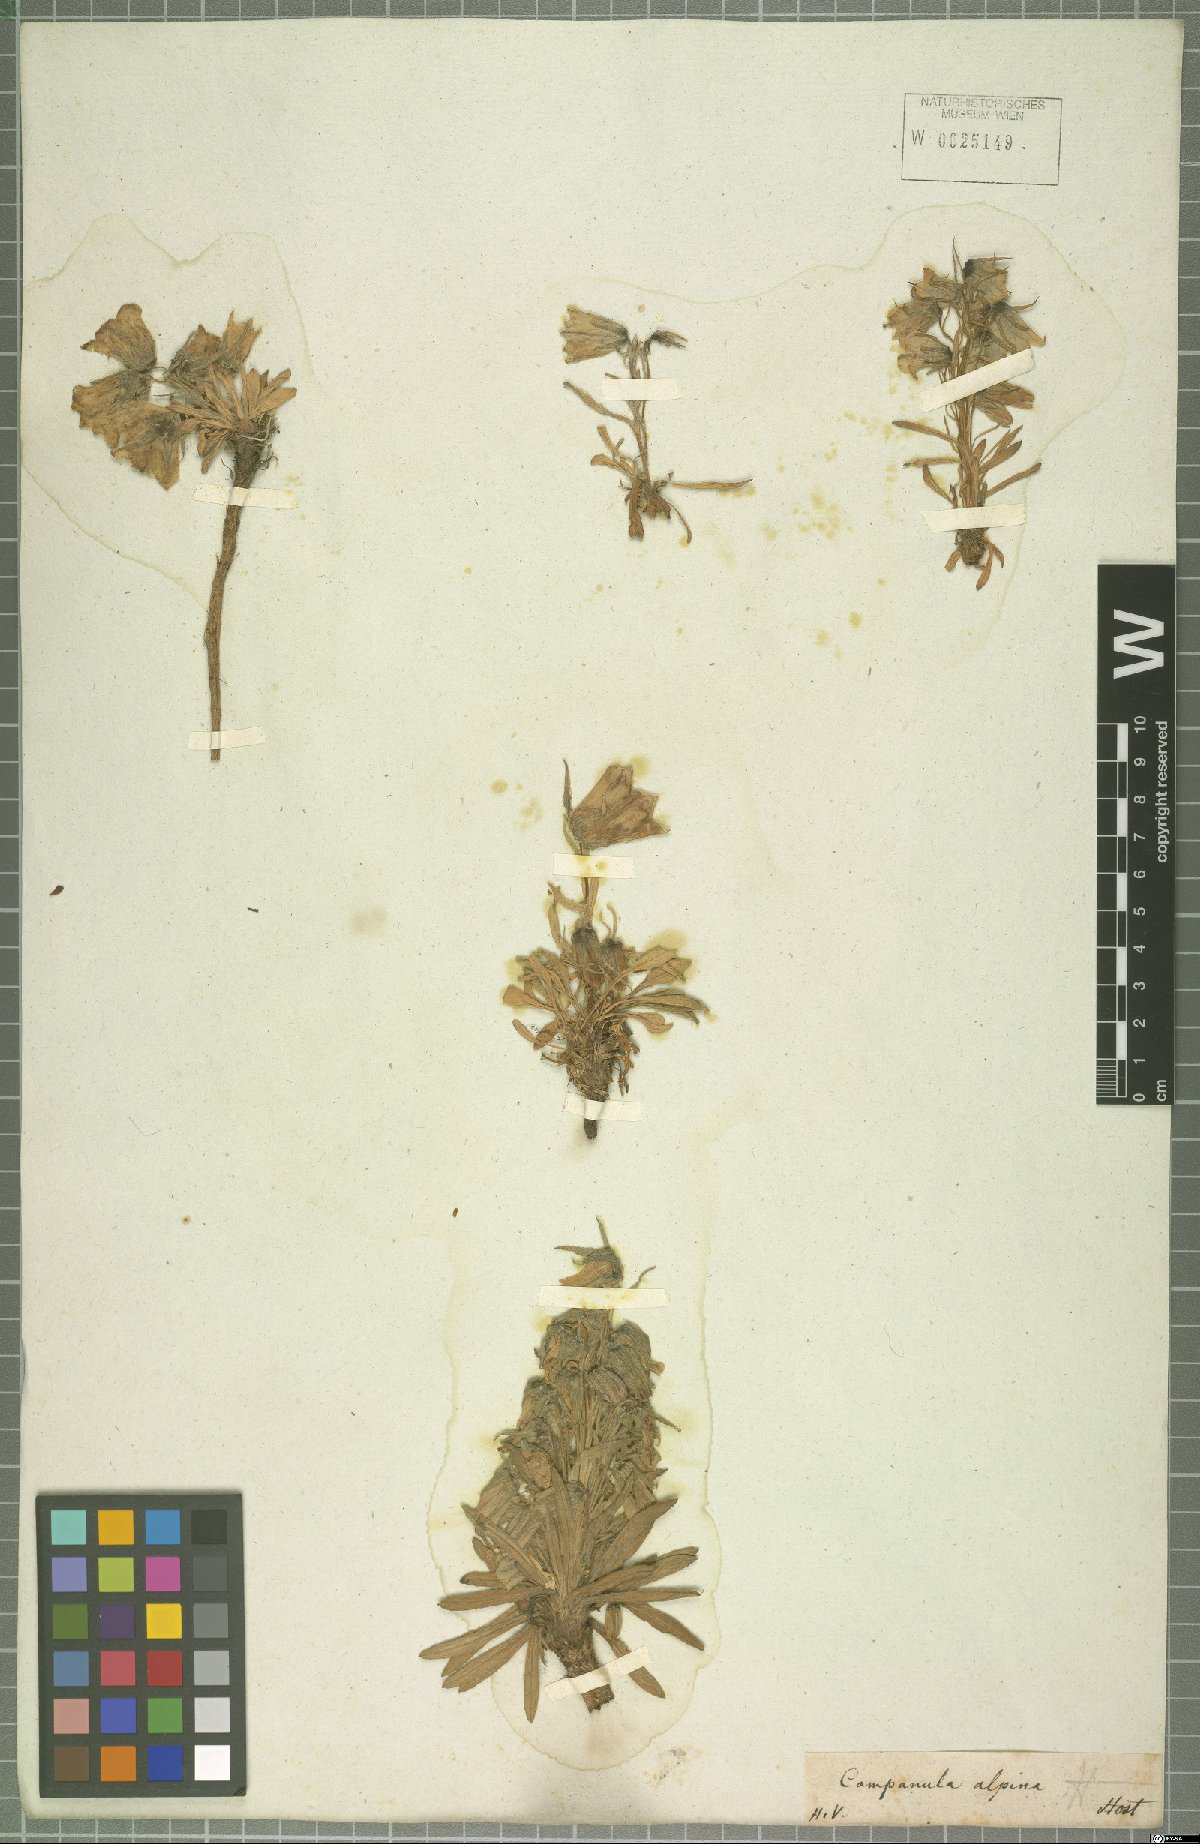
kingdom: Plantae
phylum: Tracheophyta
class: Magnoliopsida
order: Asterales
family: Campanulaceae
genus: Campanula
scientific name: Campanula alpina
